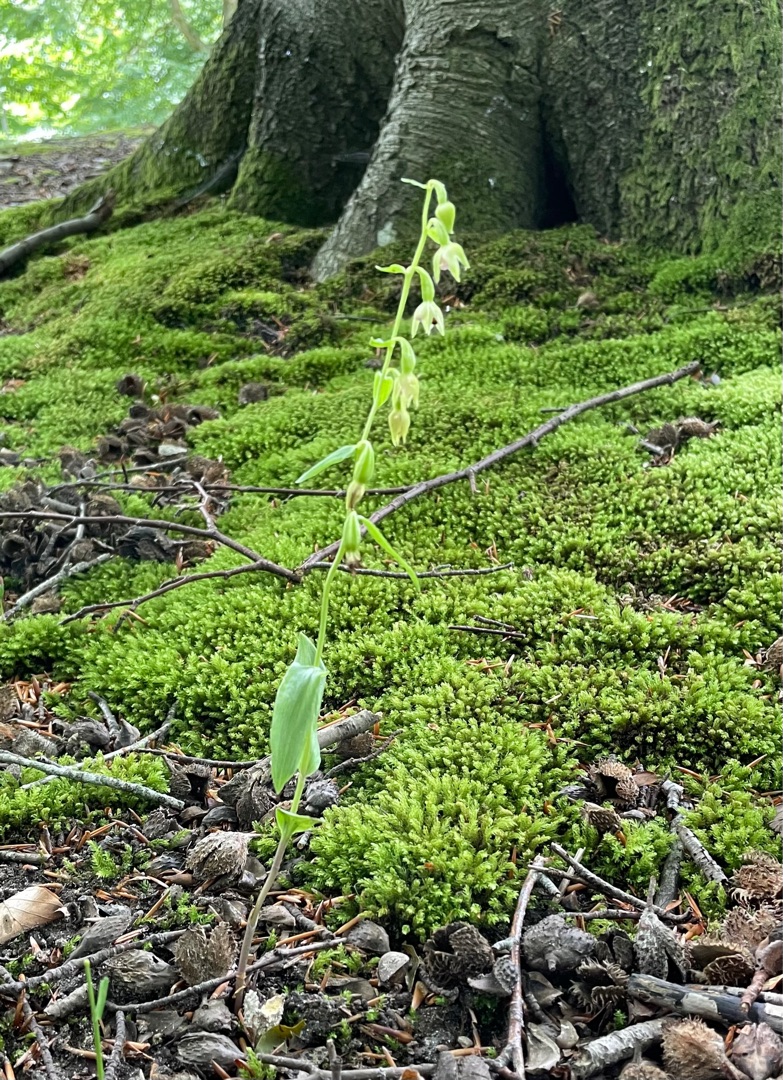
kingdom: Plantae
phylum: Tracheophyta
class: Liliopsida
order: Asparagales
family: Orchidaceae
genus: Epipactis
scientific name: Epipactis phyllanthes
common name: Nikkende hullæbe
